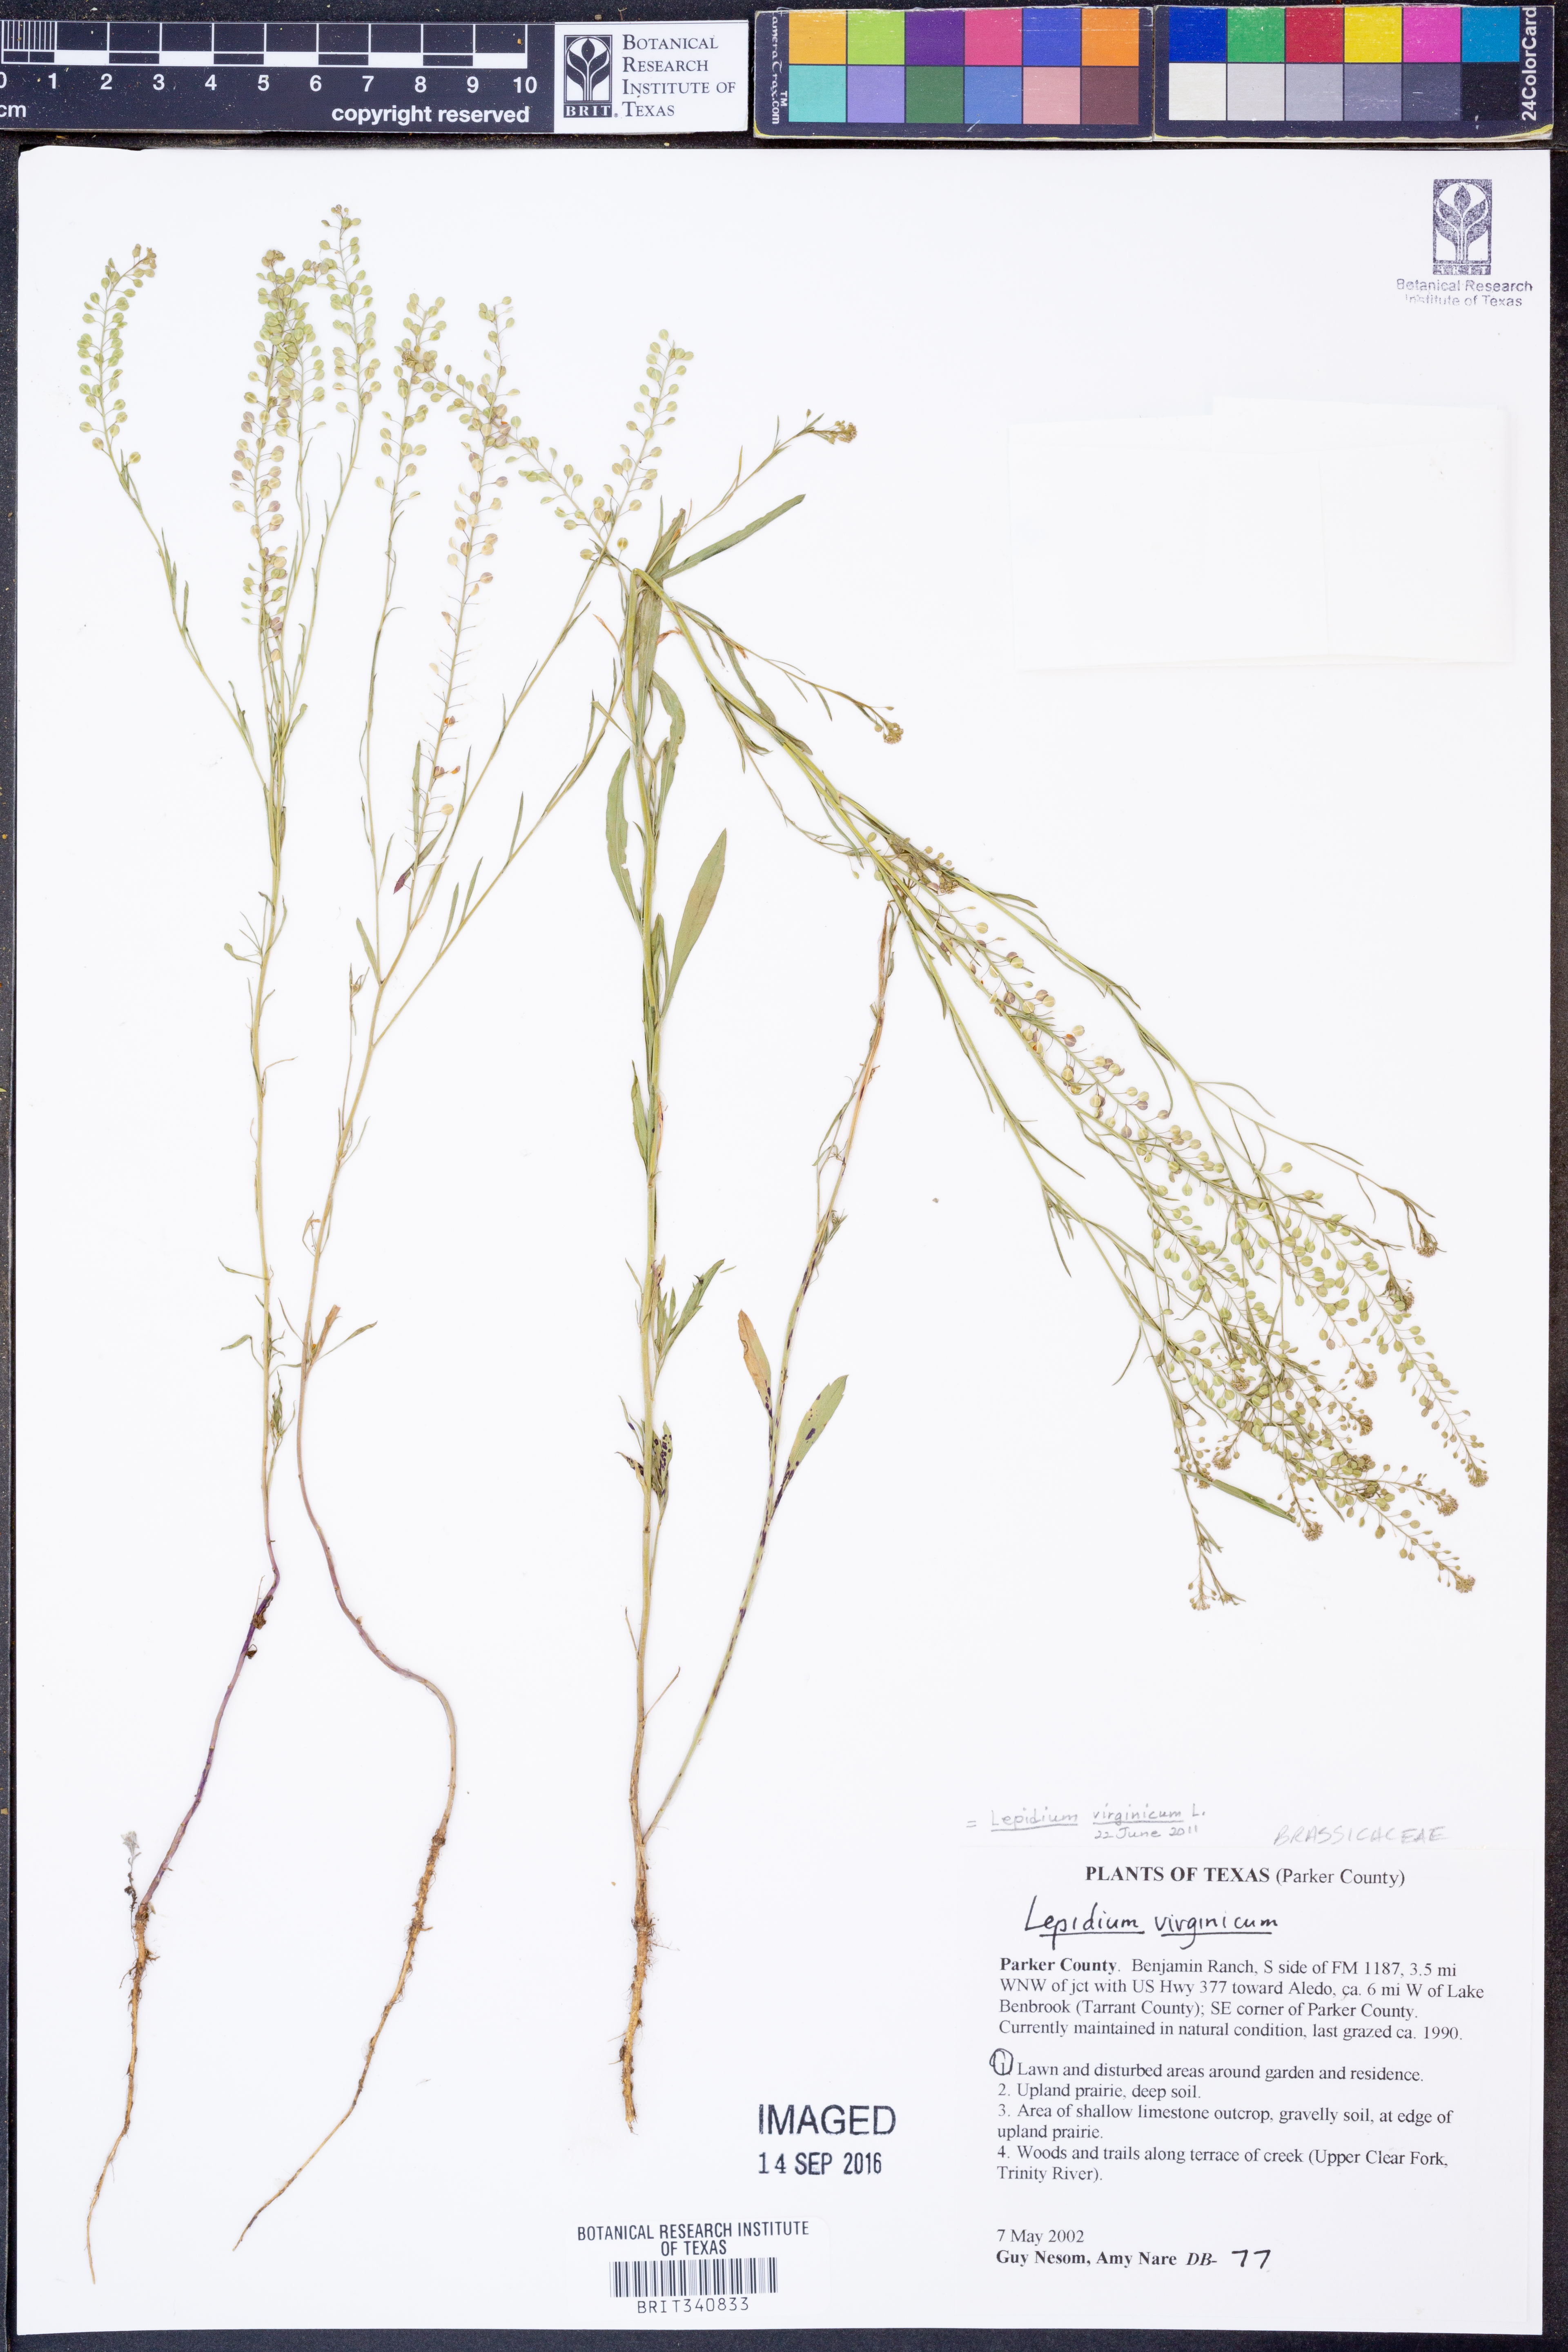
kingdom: Plantae
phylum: Tracheophyta
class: Magnoliopsida
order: Brassicales
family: Brassicaceae
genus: Lepidium
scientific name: Lepidium virginicum
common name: Least pepperwort
